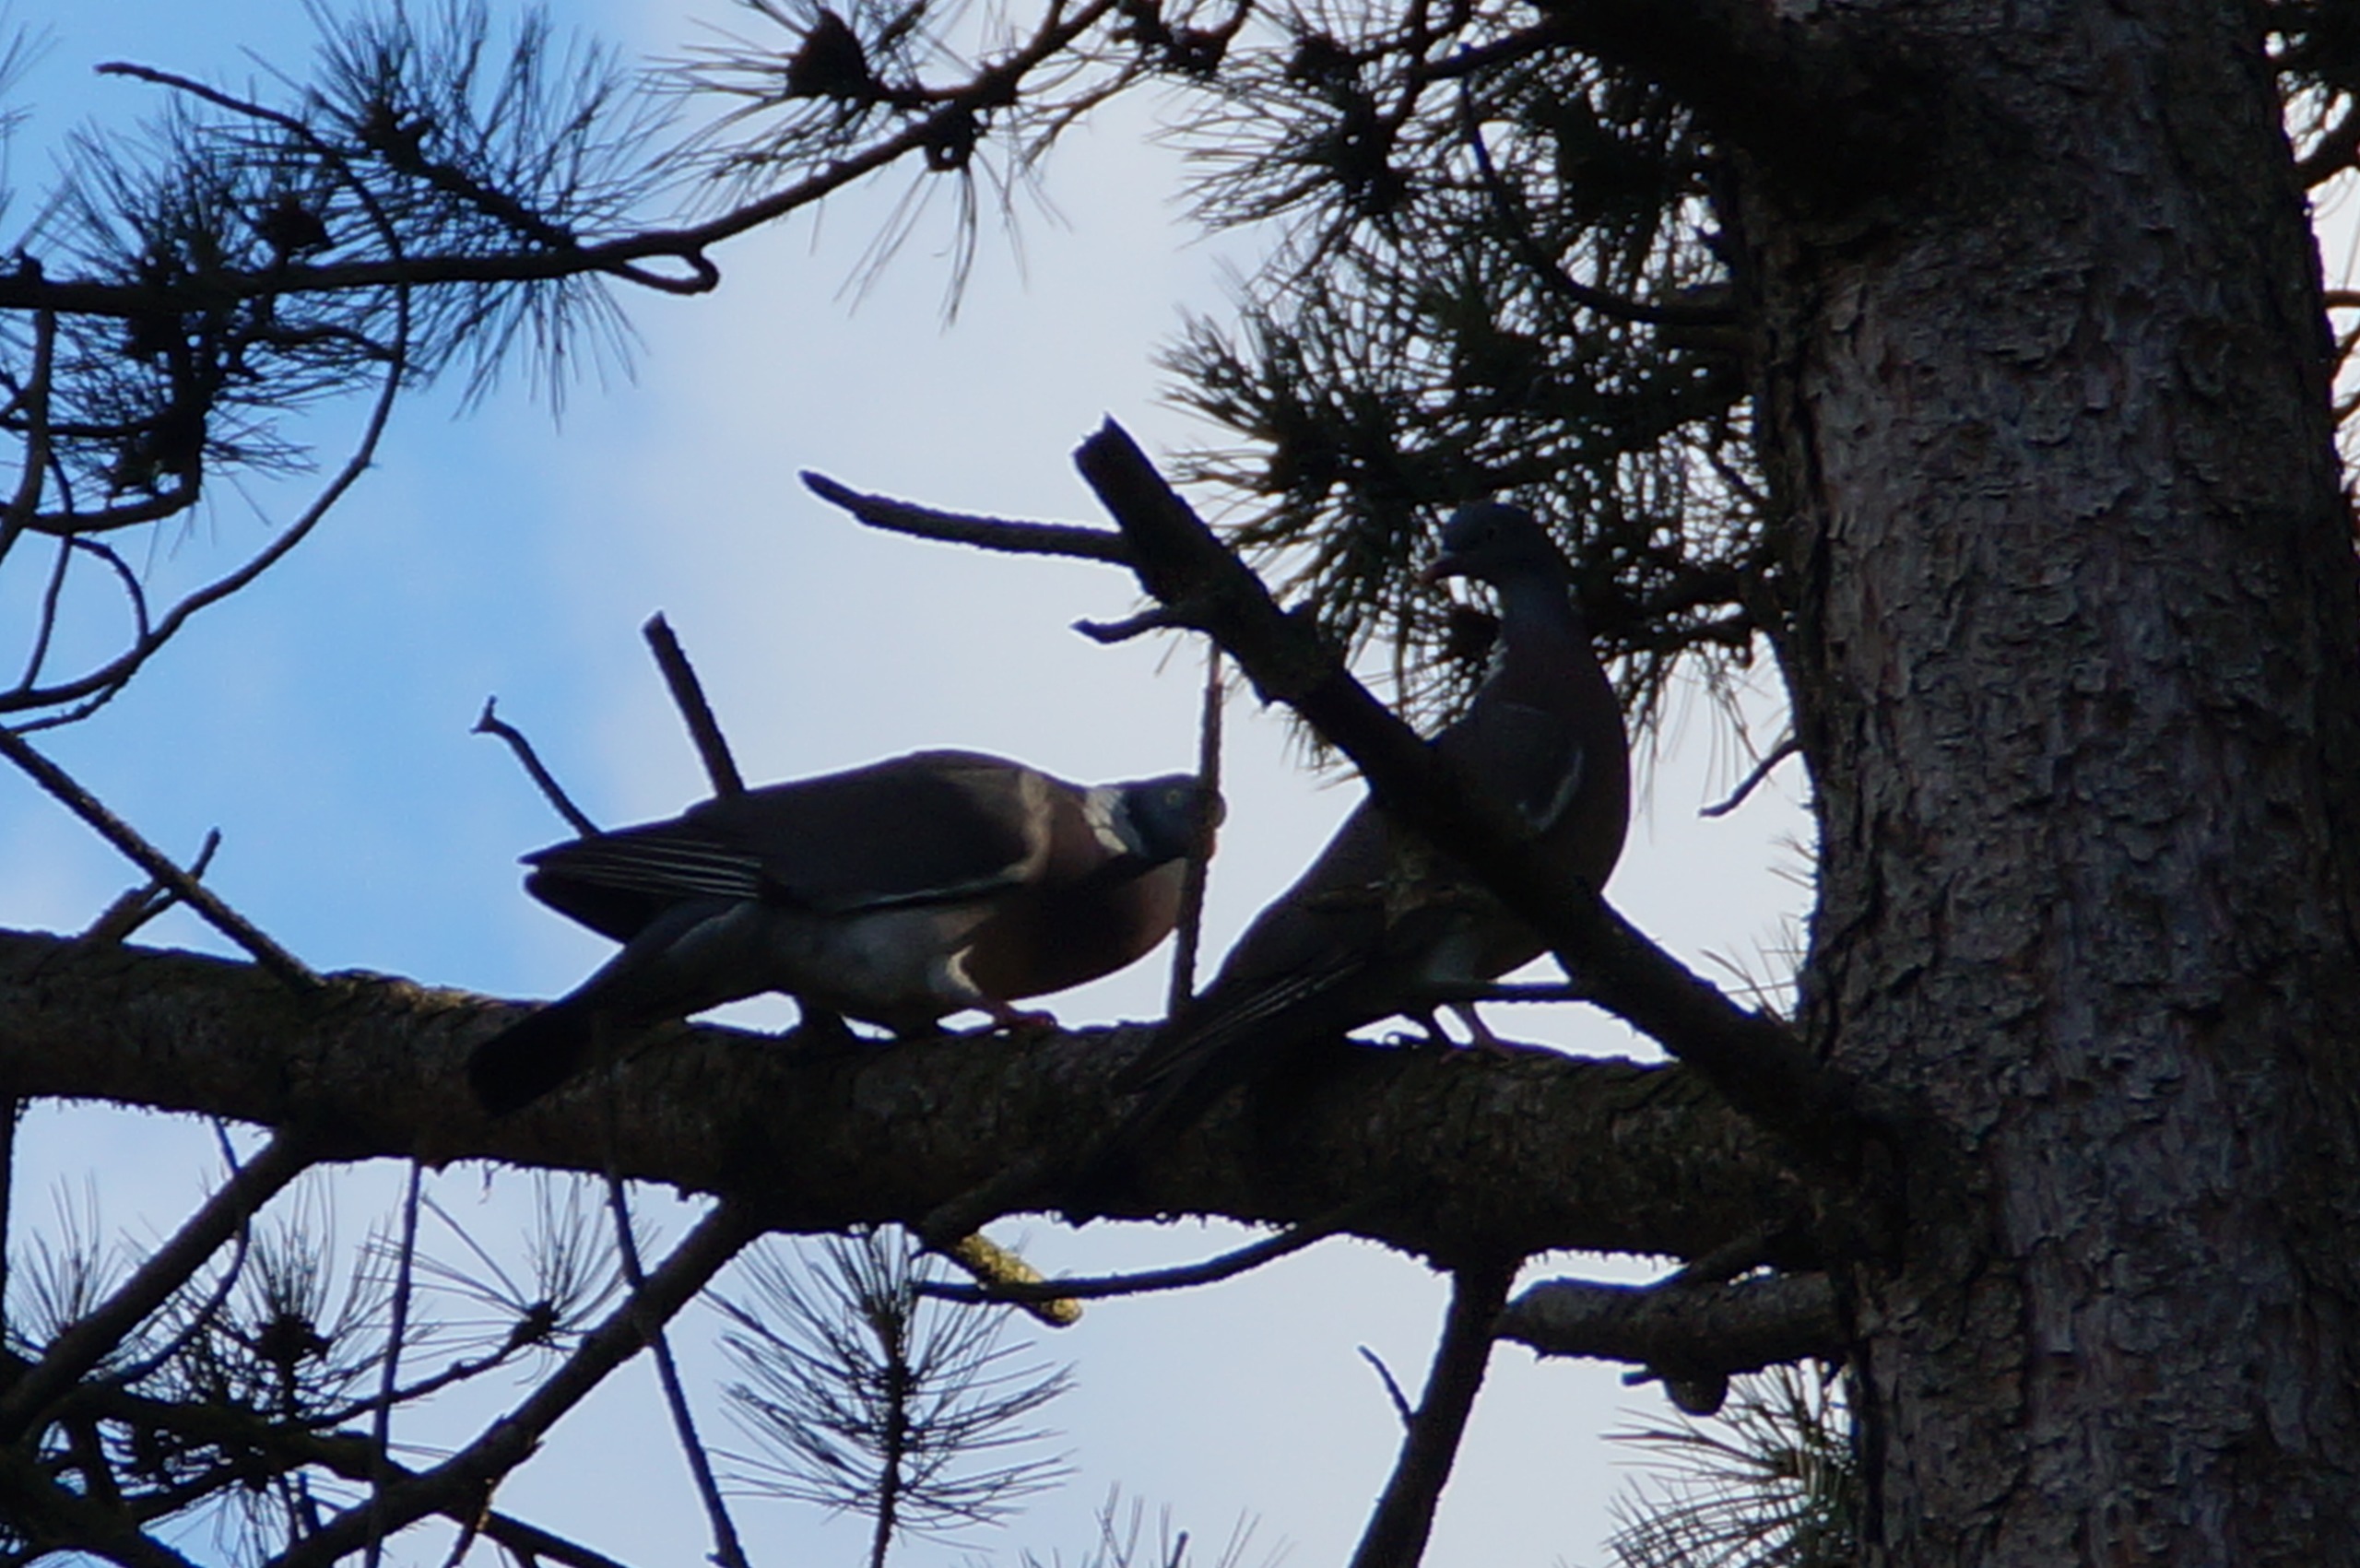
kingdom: Animalia
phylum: Chordata
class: Aves
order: Columbiformes
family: Columbidae
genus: Columba
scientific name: Columba palumbus
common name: Ringdue
